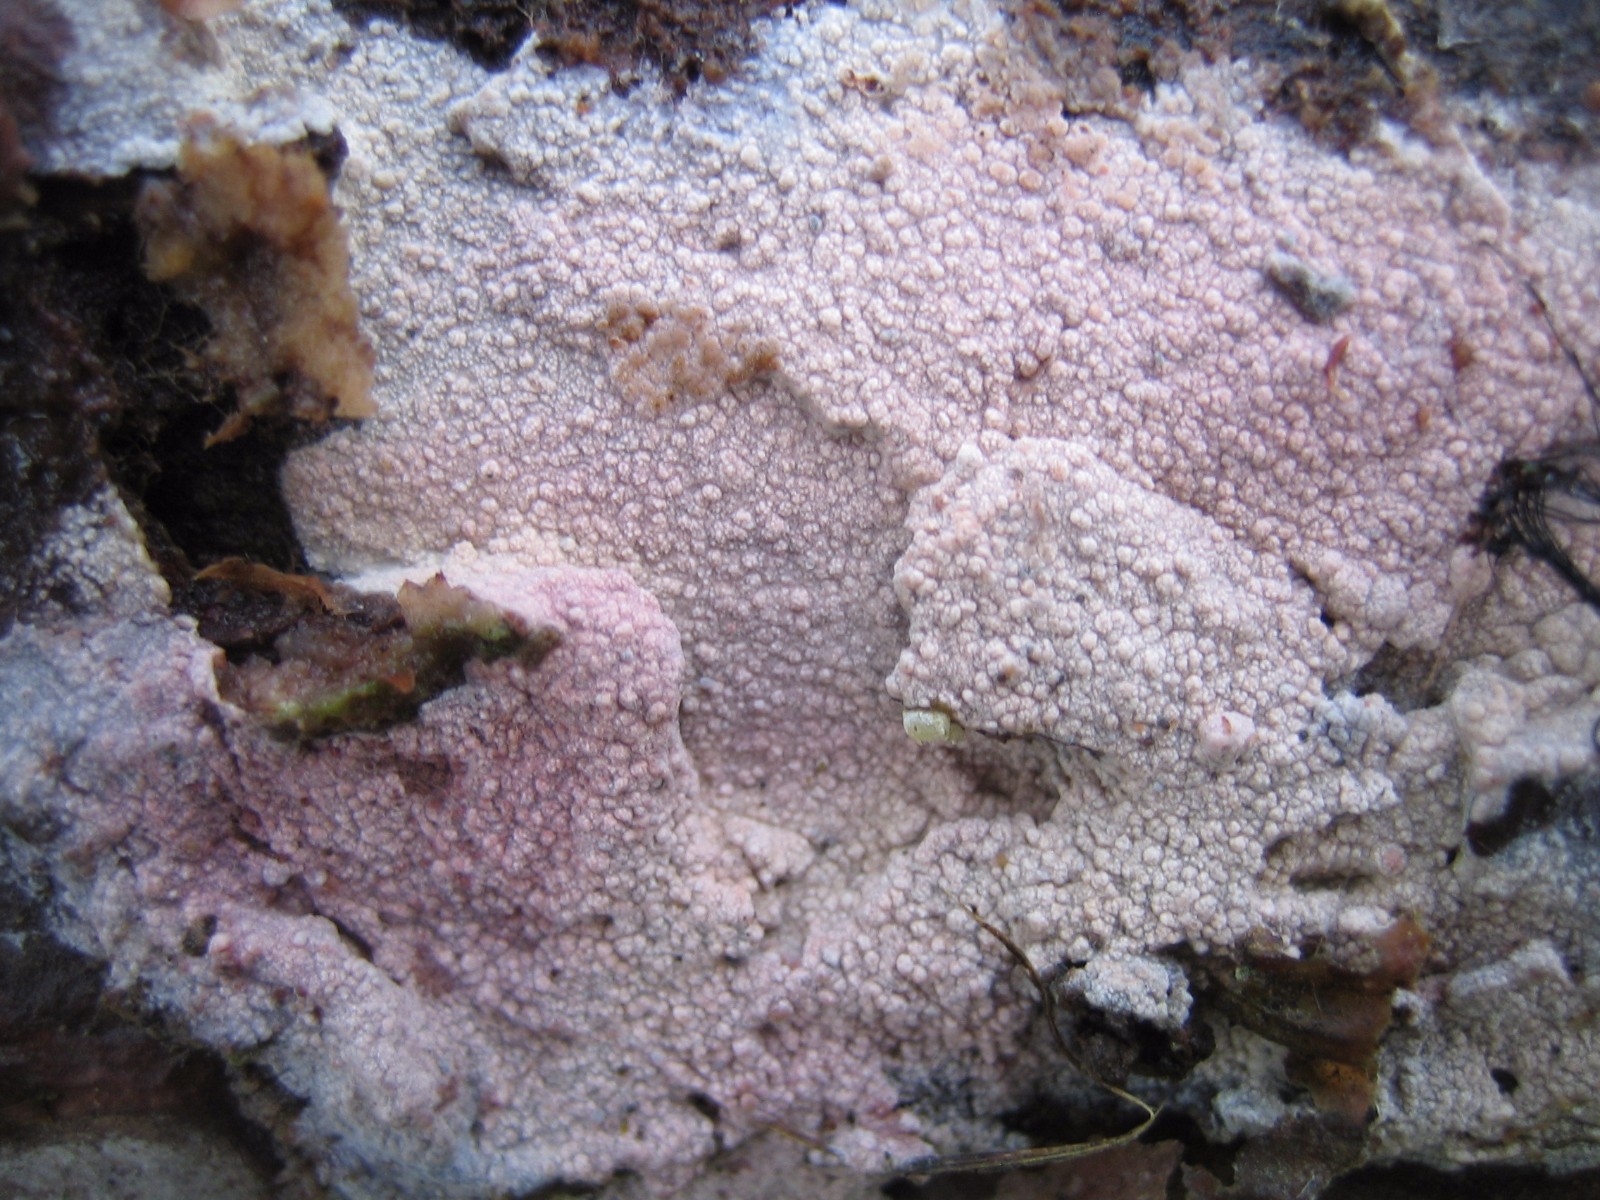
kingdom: Fungi
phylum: Basidiomycota
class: Agaricomycetes
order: Polyporales
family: Hyphodermataceae
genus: Hyphoderma
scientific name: Hyphoderma setigerum
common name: håret kalkskind
